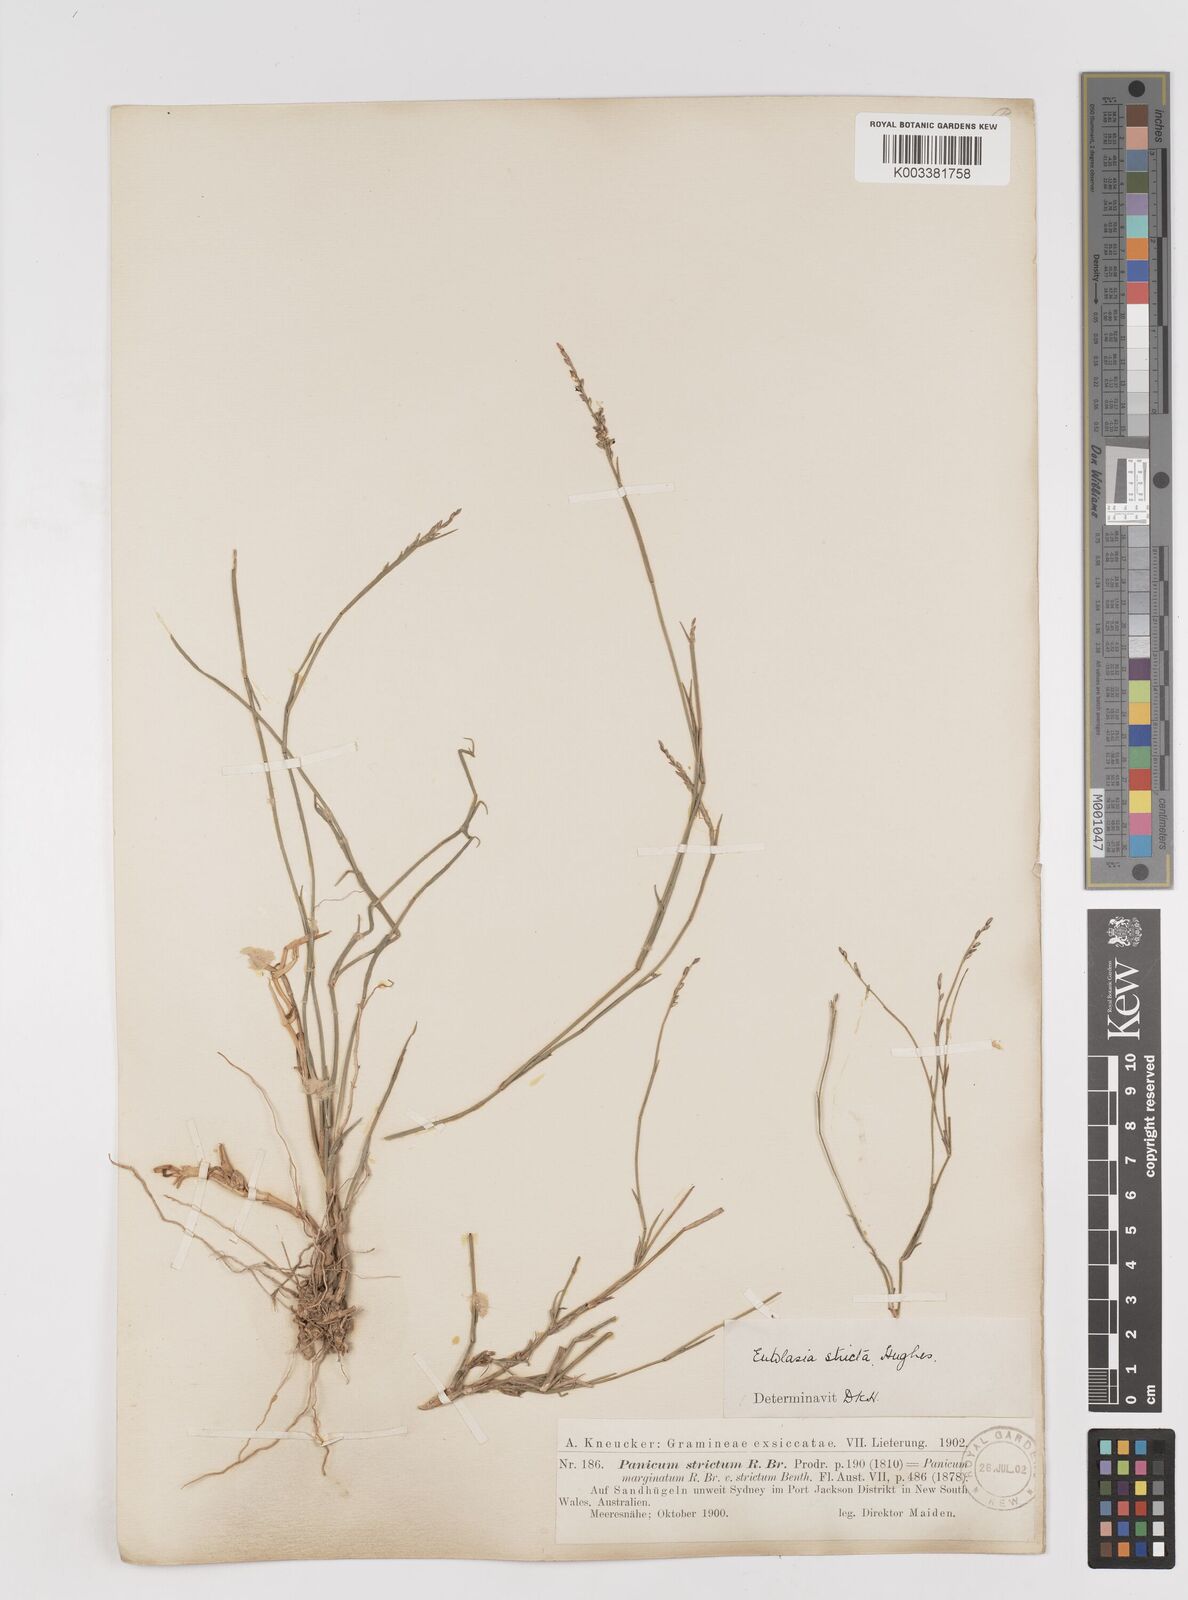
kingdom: Plantae
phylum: Tracheophyta
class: Liliopsida
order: Poales
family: Poaceae
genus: Entolasia
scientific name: Entolasia stricta
